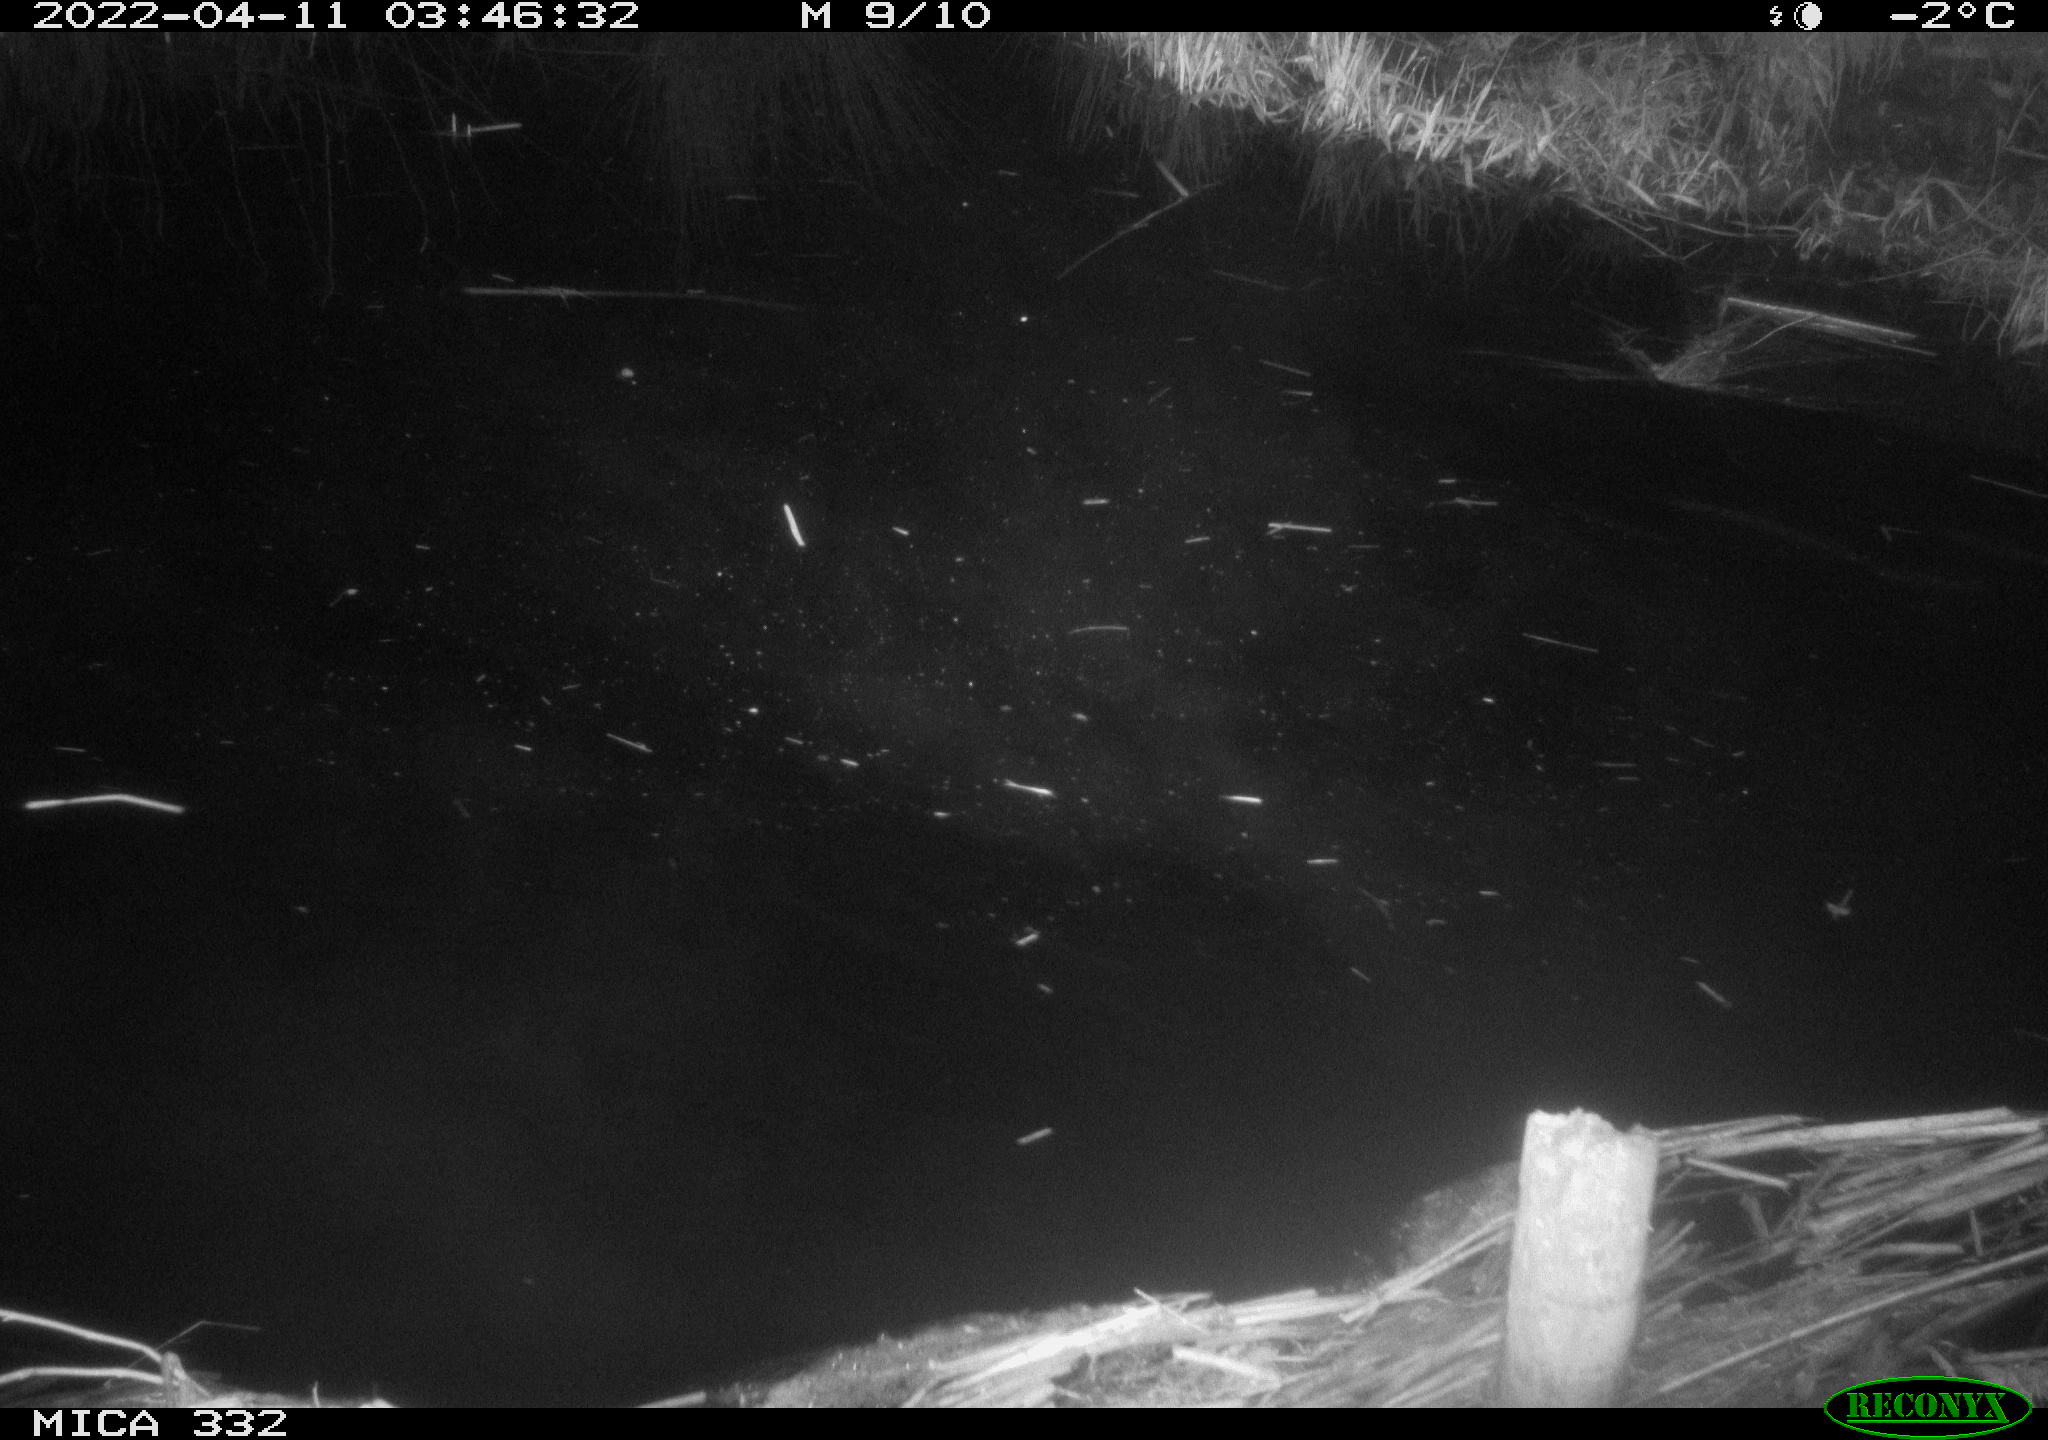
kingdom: Animalia
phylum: Chordata
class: Aves
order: Gruiformes
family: Rallidae
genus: Fulica
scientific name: Fulica atra
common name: Eurasian coot
